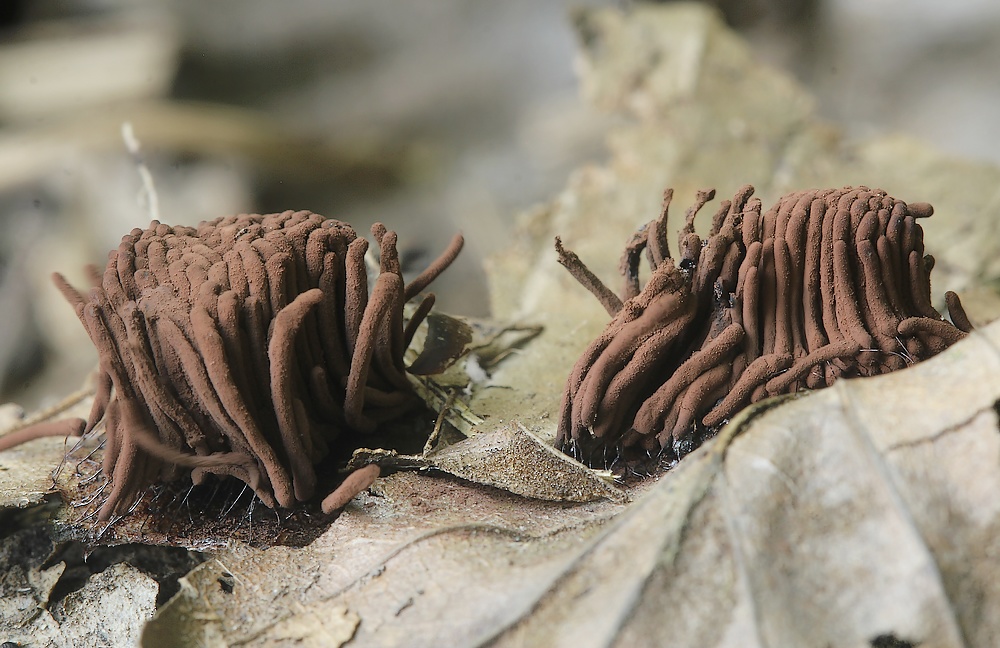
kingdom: Protozoa
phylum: Mycetozoa
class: Myxomycetes
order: Stemonitidales
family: Stemonitidaceae
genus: Stemonitis
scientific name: Stemonitis
